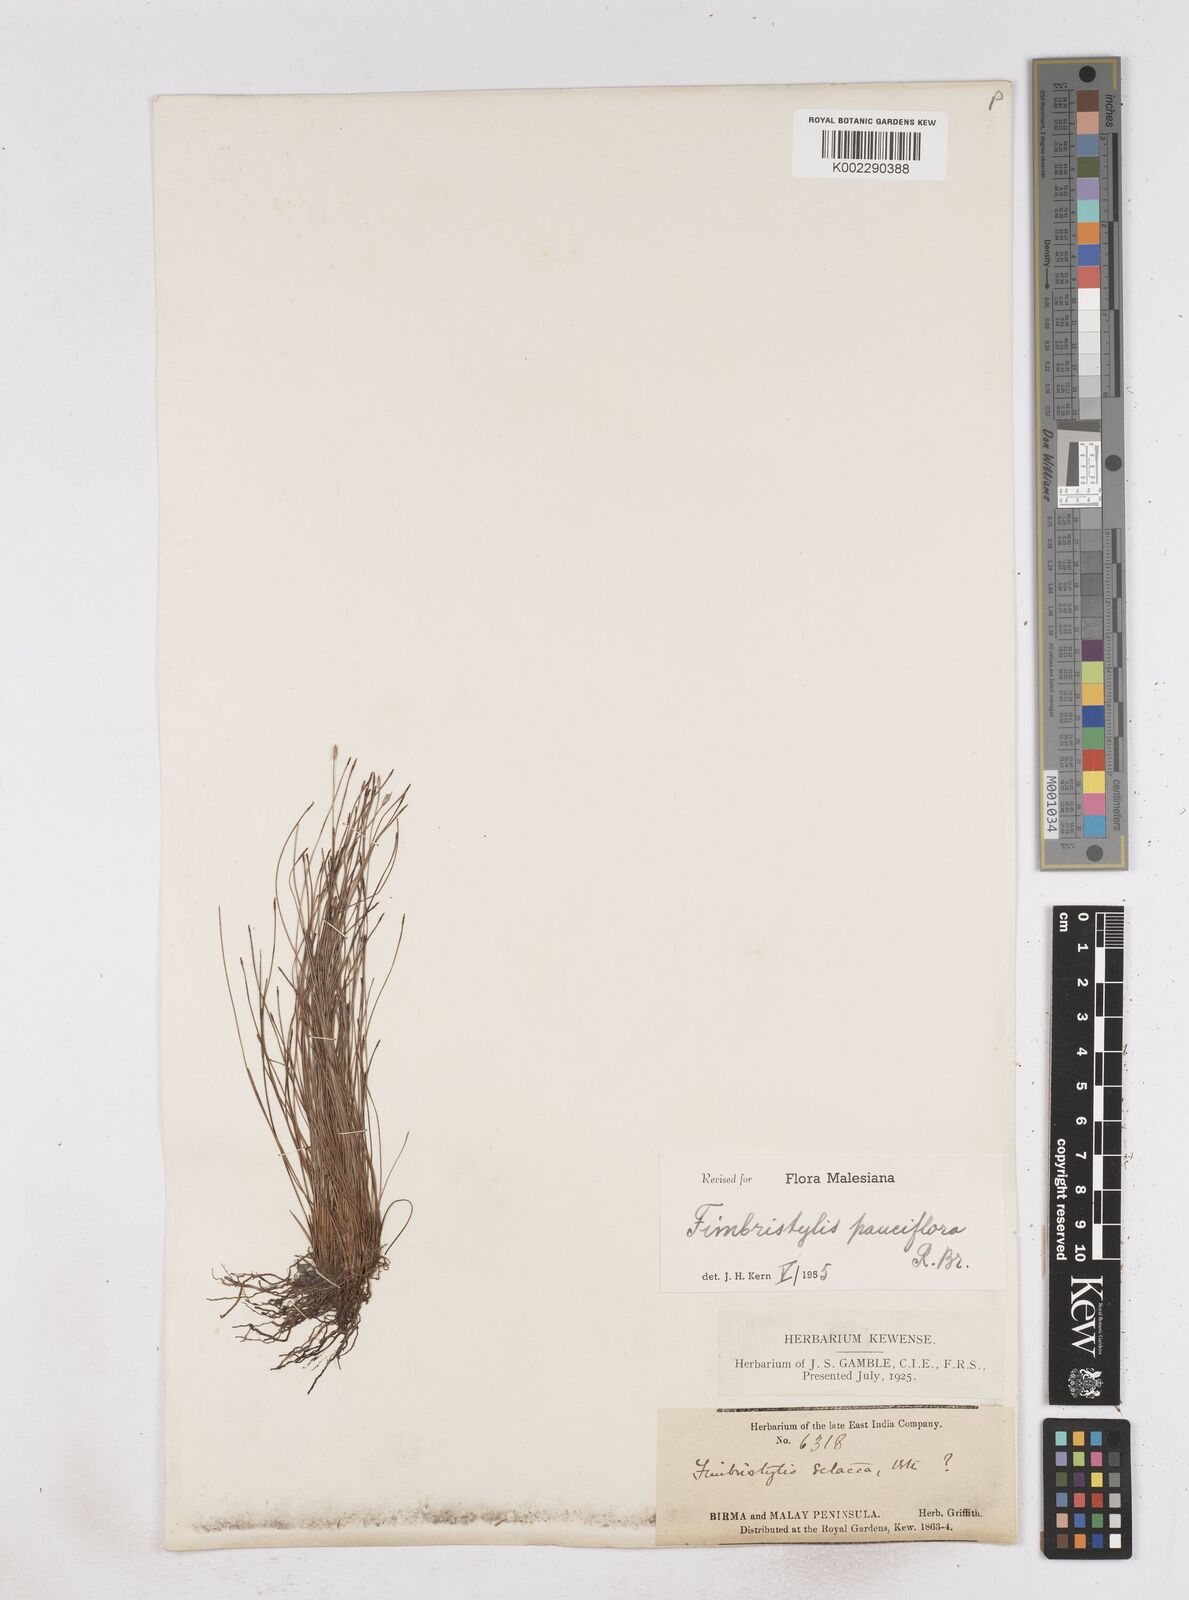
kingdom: Plantae
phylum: Tracheophyta
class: Liliopsida
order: Poales
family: Cyperaceae
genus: Fimbristylis
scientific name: Fimbristylis pauciflora
